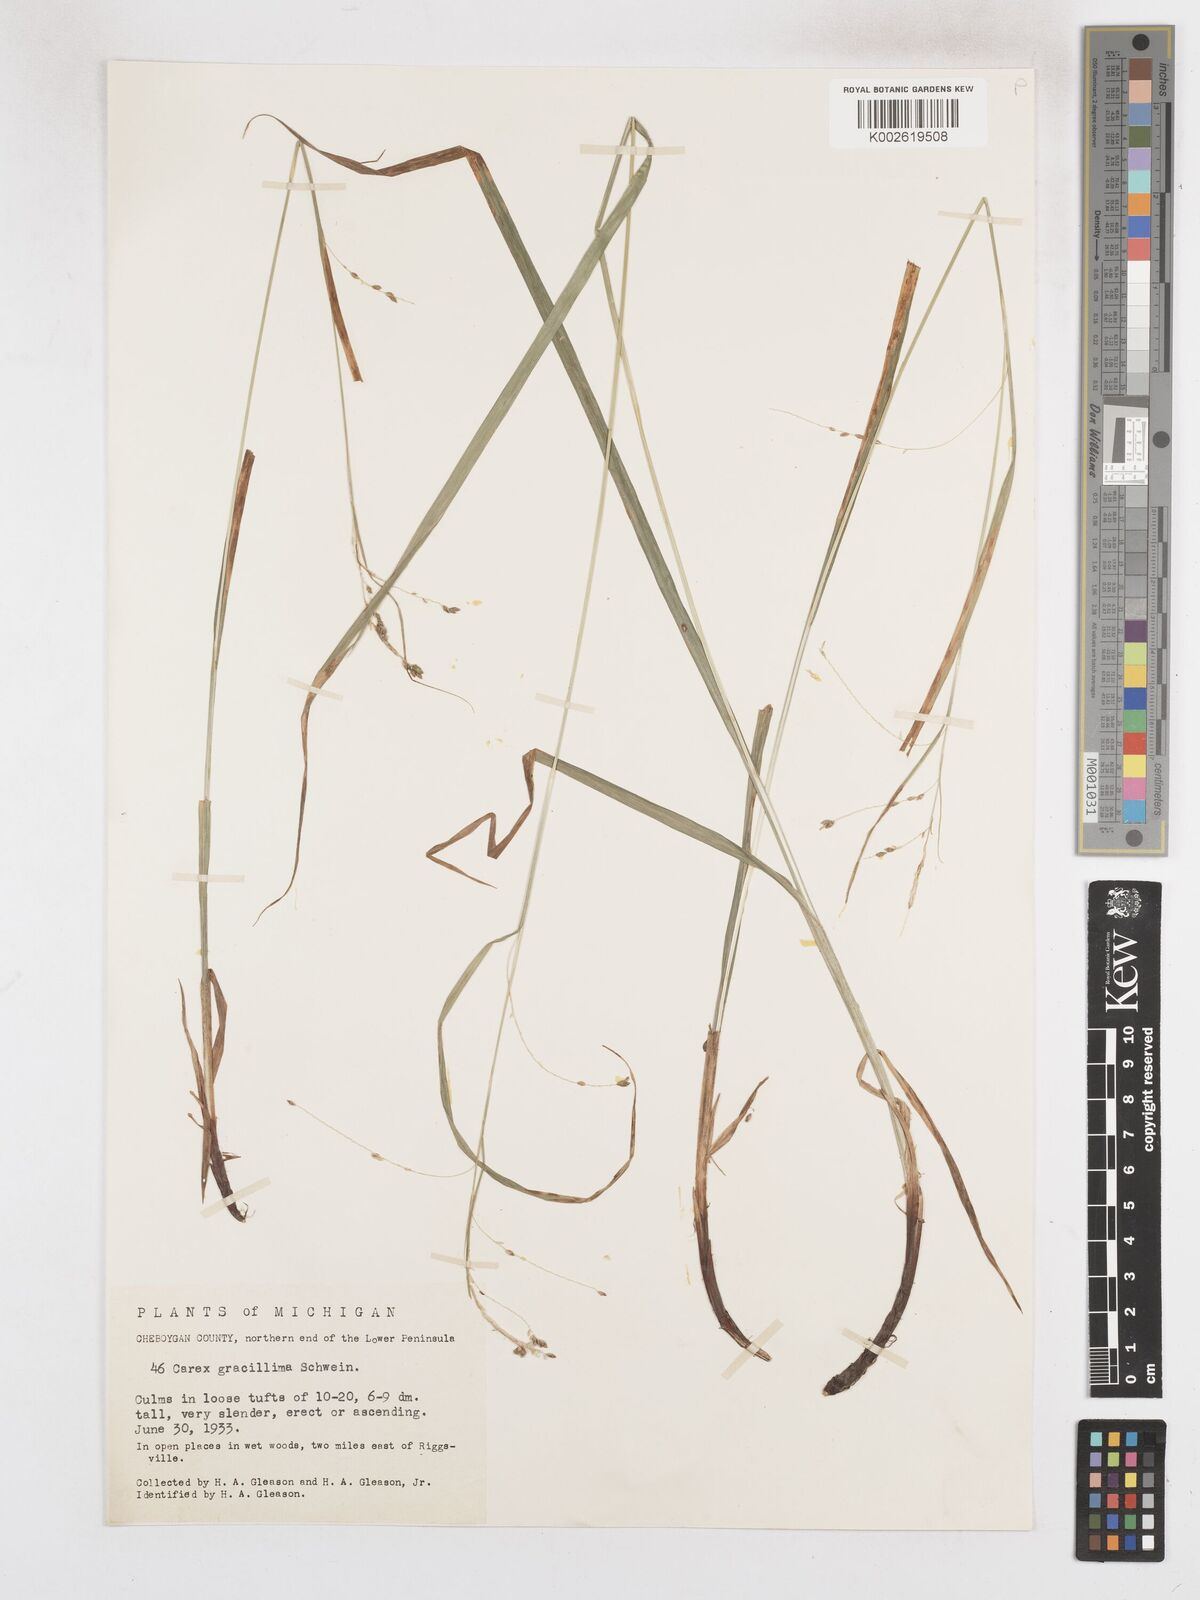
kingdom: Plantae
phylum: Tracheophyta
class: Liliopsida
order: Poales
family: Cyperaceae
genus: Carex
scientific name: Carex gracillima
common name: Graceful sedge
